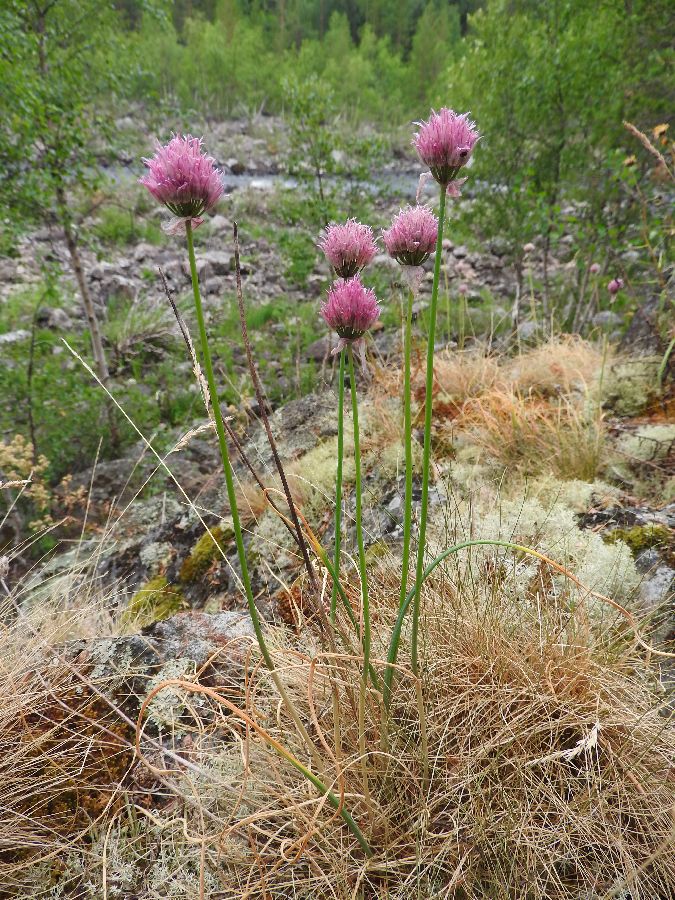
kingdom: Plantae
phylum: Tracheophyta
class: Liliopsida
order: Asparagales
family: Amaryllidaceae
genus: Allium
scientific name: Allium schoenoprasum
